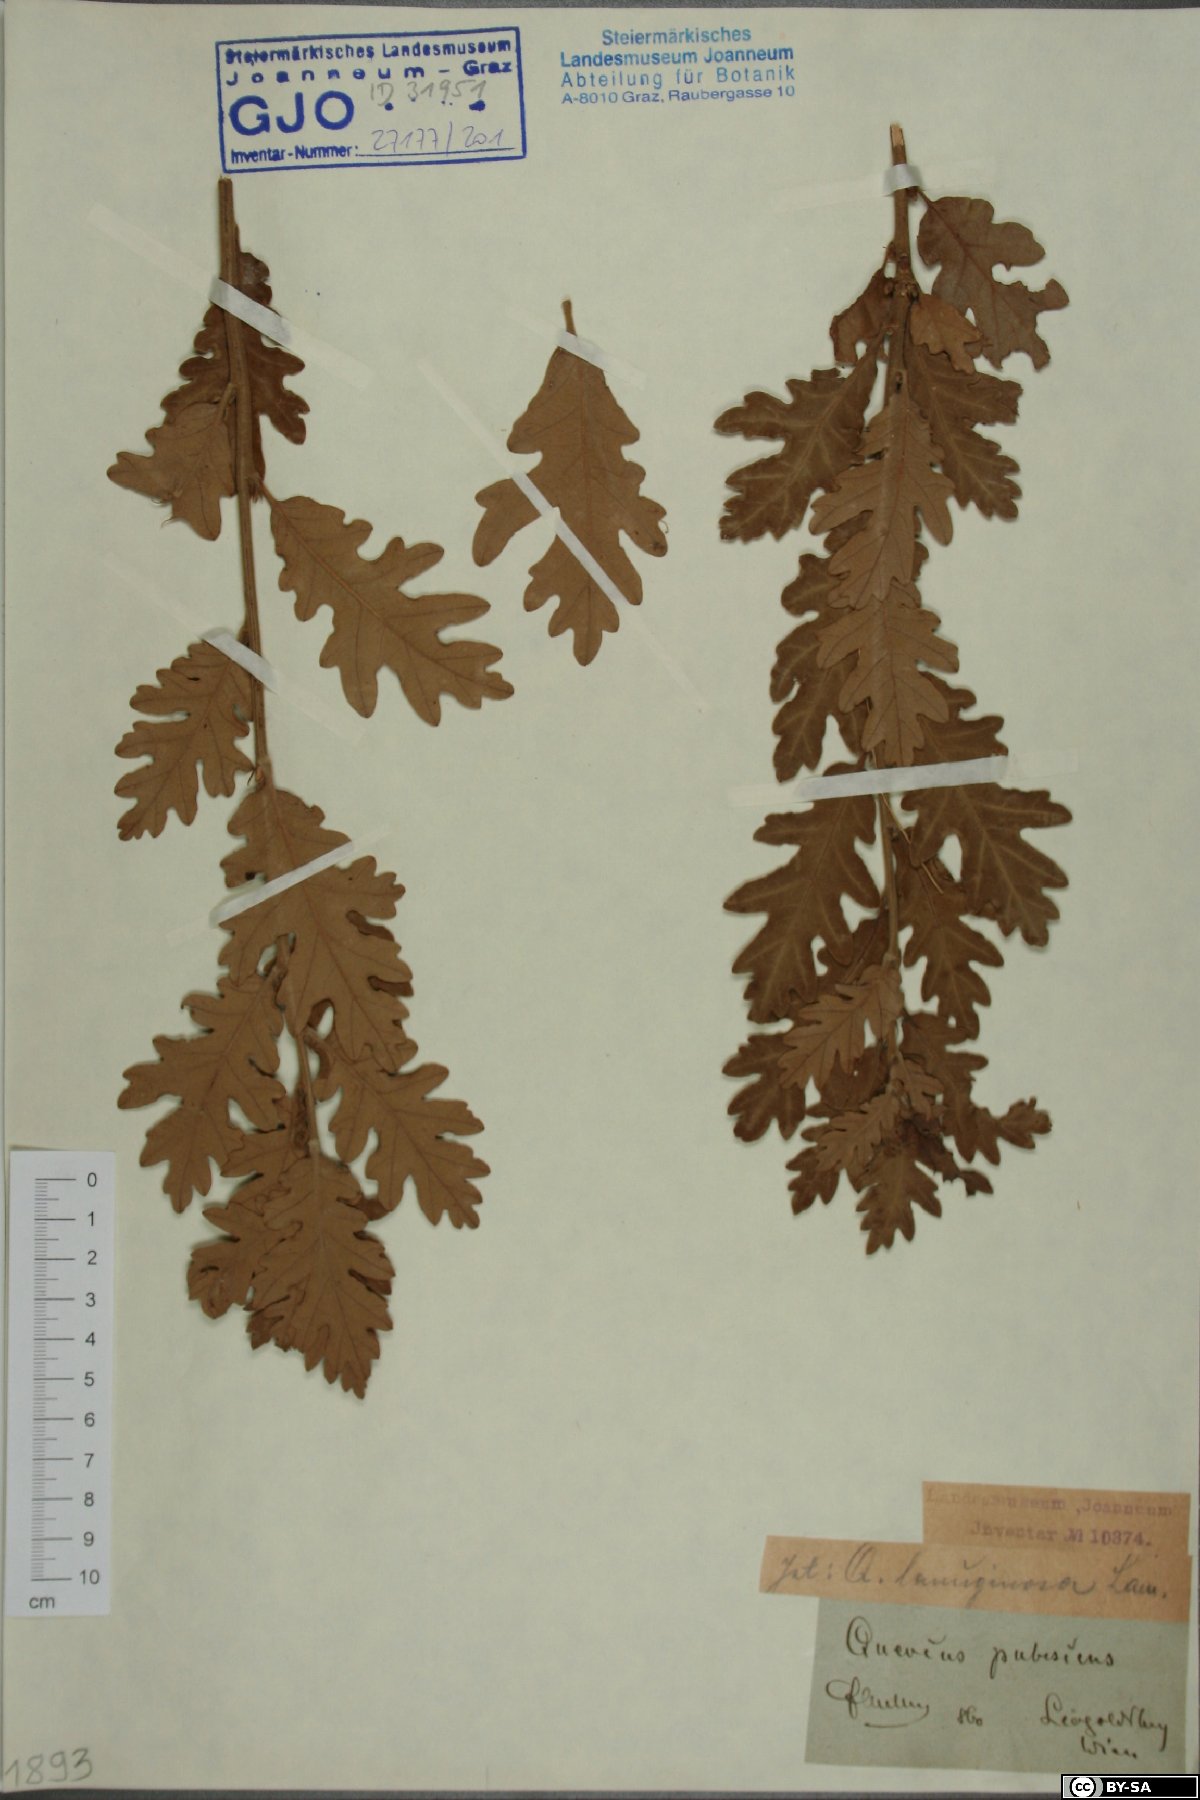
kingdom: Plantae
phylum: Tracheophyta
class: Magnoliopsida
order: Fagales
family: Fagaceae
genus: Quercus
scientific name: Quercus pubescens
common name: Downy oak
